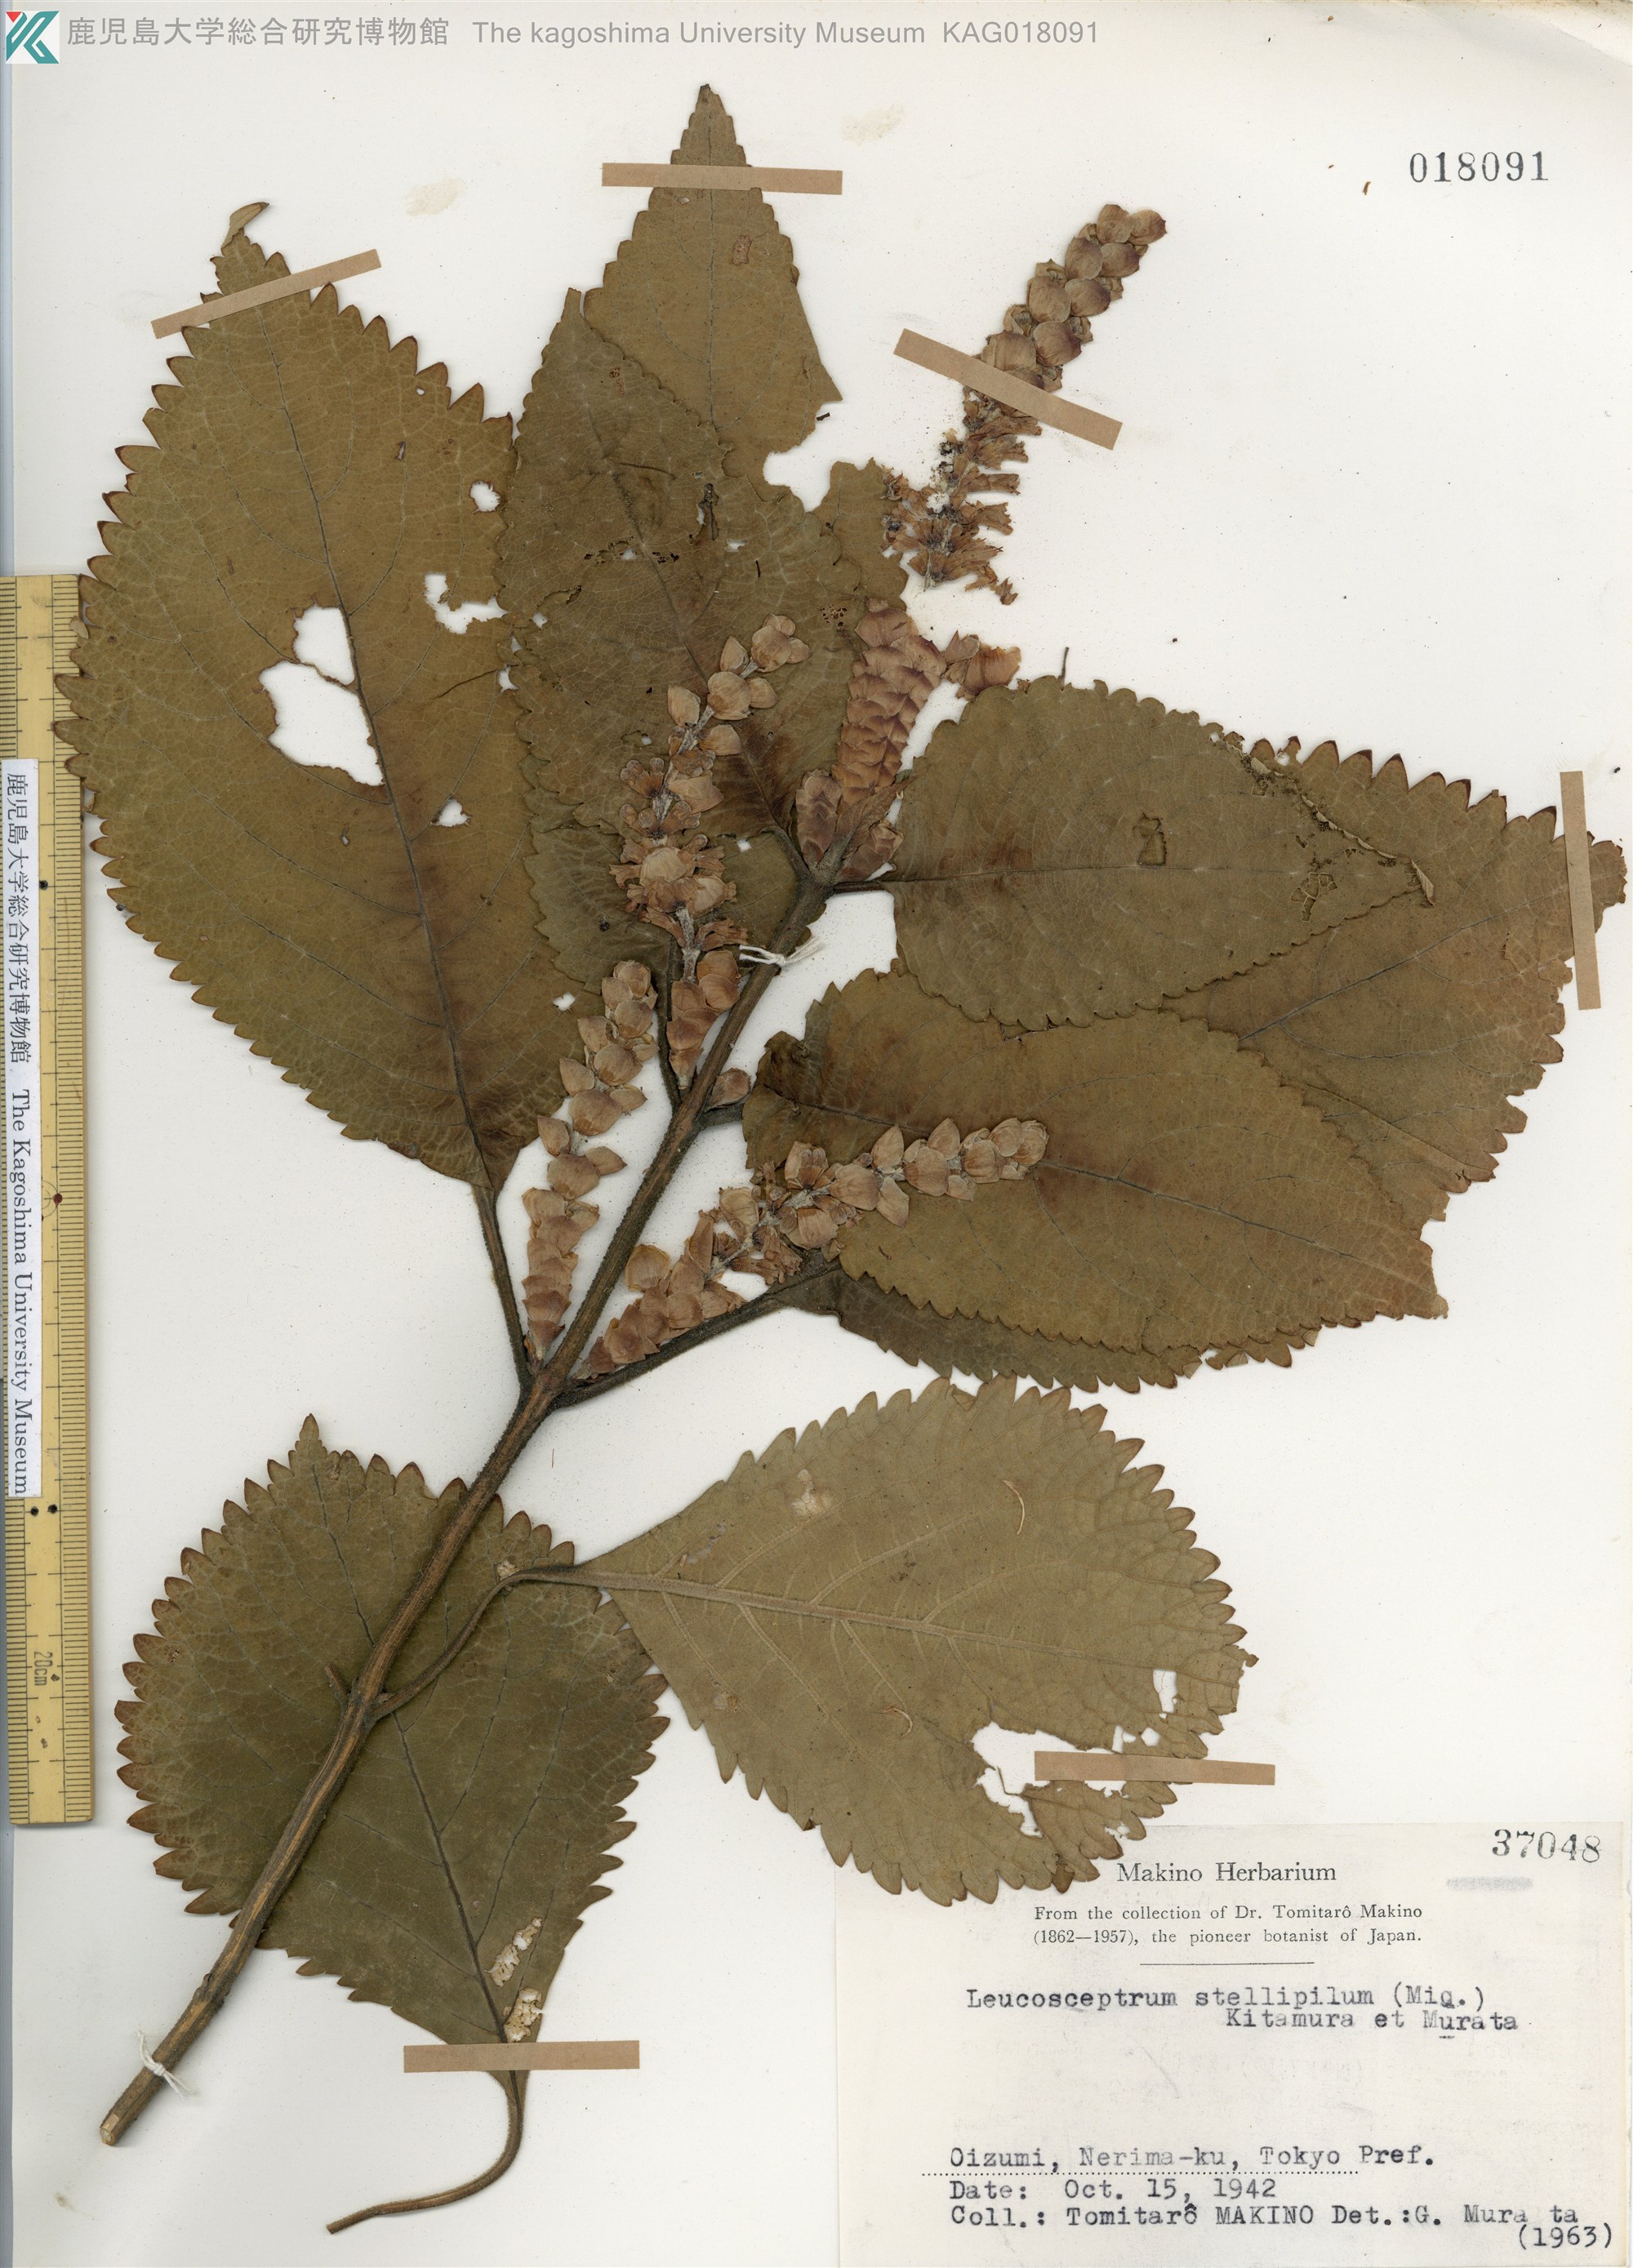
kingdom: Plantae
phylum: Tracheophyta
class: Magnoliopsida
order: Lamiales
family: Lamiaceae
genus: Comanthosphace
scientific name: Comanthosphace stellipila
